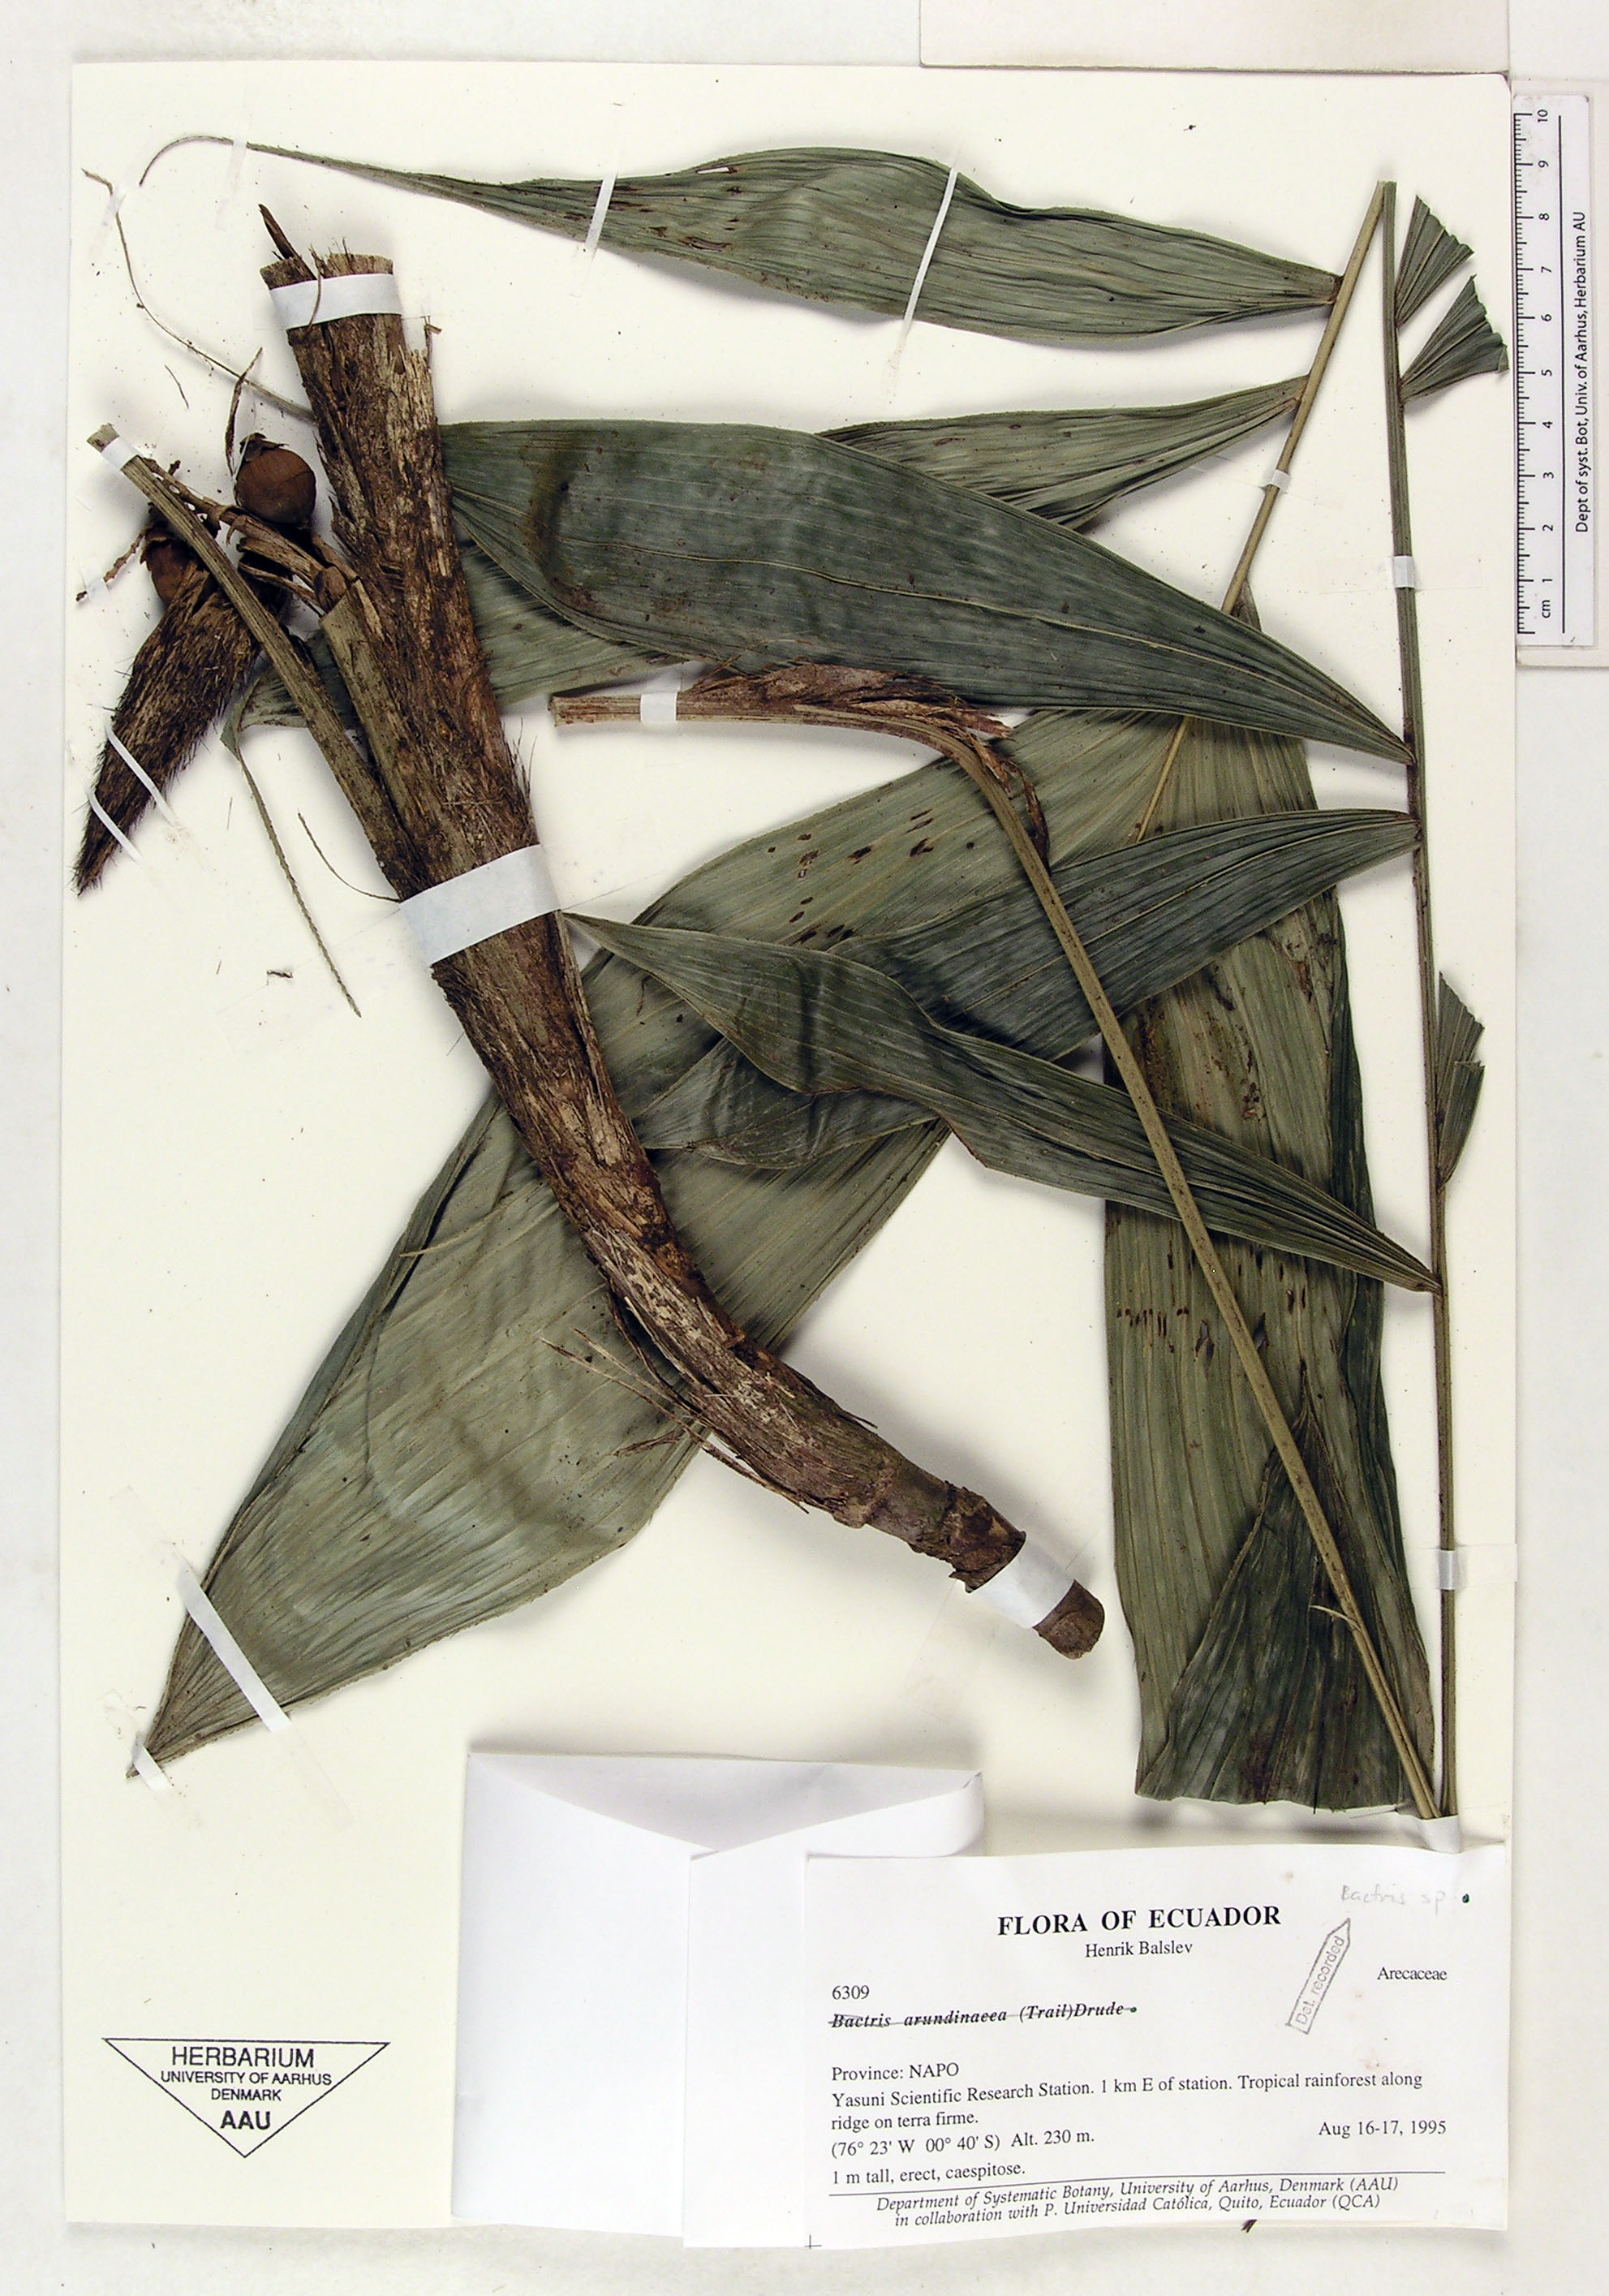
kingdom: Plantae
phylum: Tracheophyta
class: Liliopsida
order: Arecales
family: Arecaceae
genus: Bactris
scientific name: Bactris
